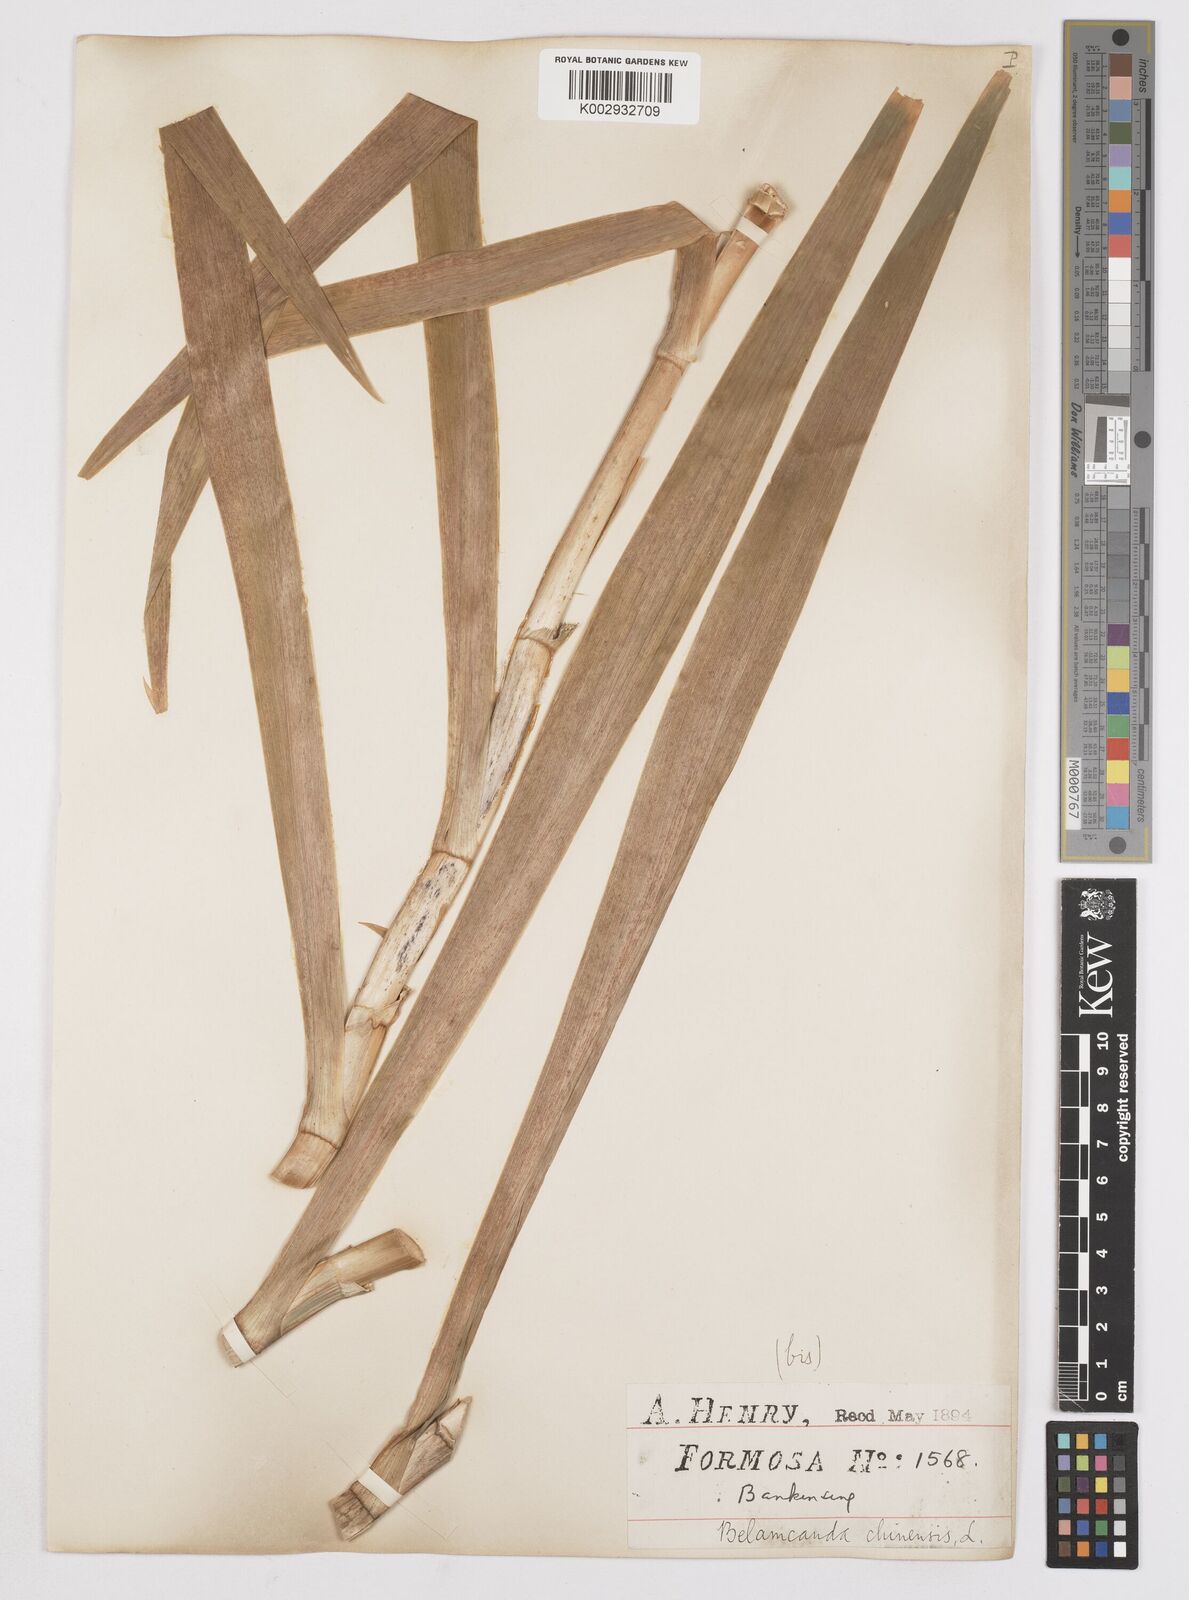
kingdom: Plantae
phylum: Tracheophyta
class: Liliopsida
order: Asparagales
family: Iridaceae
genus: Iris
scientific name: Iris
